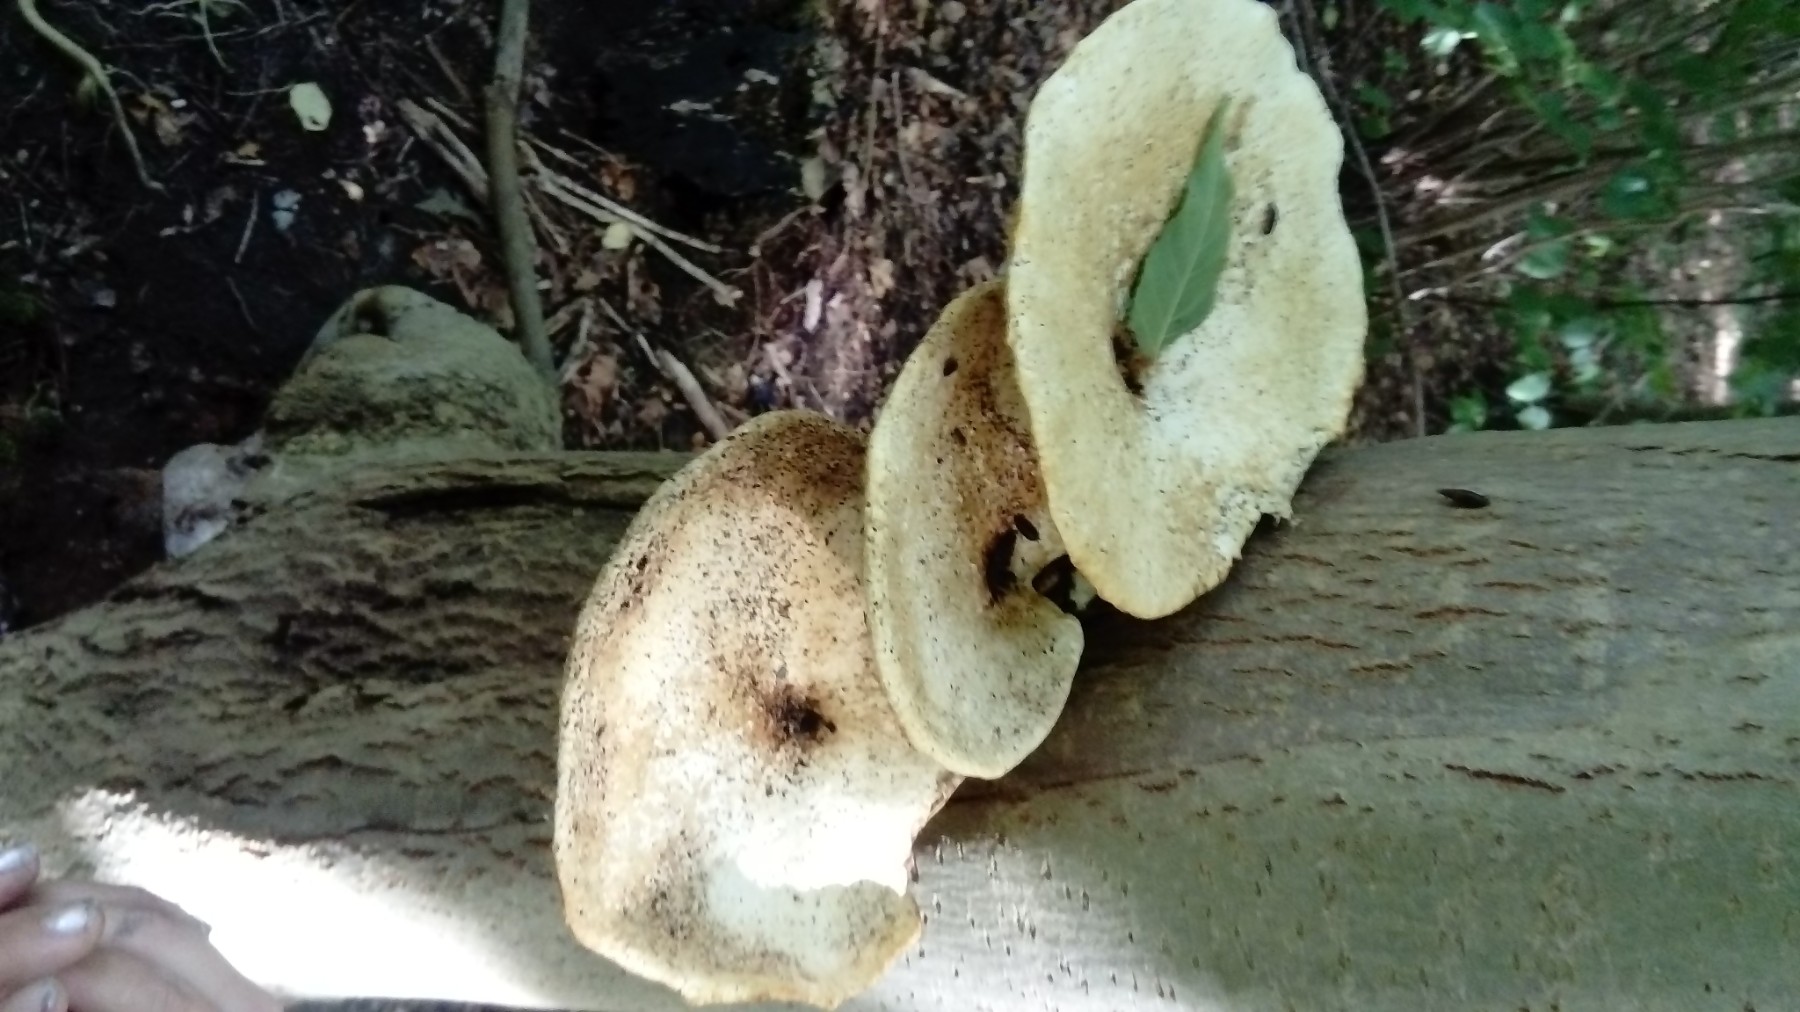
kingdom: Fungi
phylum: Basidiomycota
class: Agaricomycetes
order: Polyporales
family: Polyporaceae
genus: Cerioporus
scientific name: Cerioporus squamosus
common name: skællet stilkporesvamp
